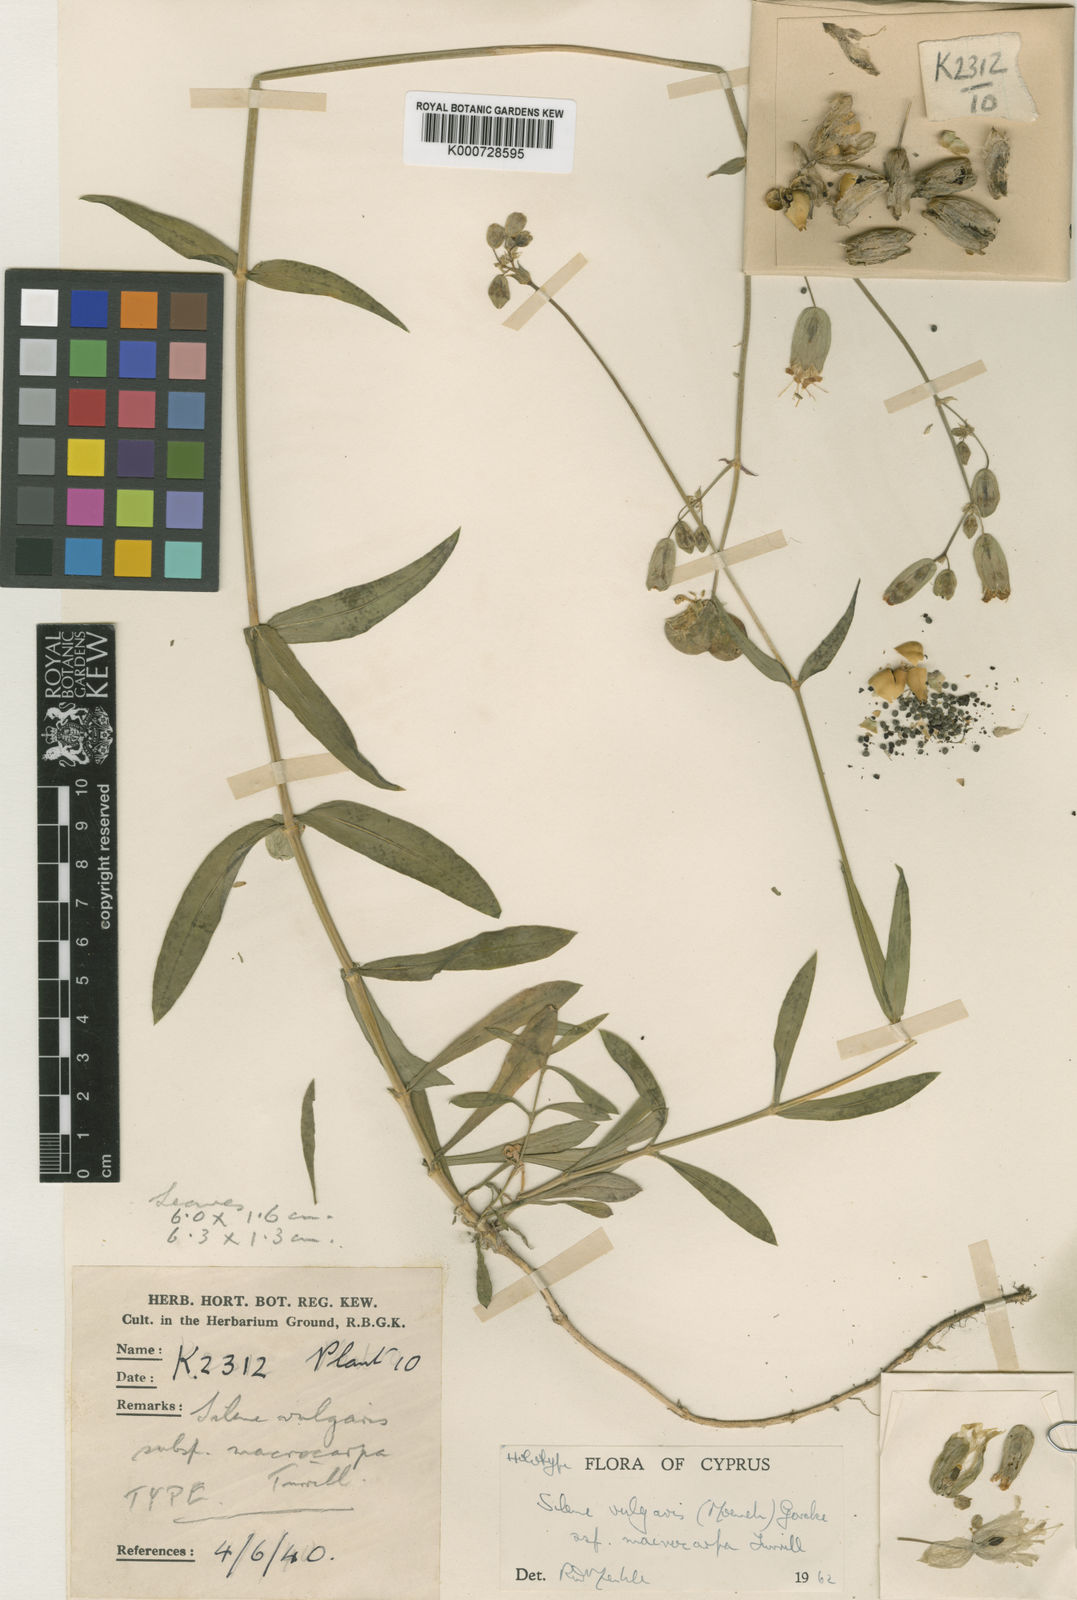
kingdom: Plantae
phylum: Tracheophyta
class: Magnoliopsida
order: Caryophyllales
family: Caryophyllaceae
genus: Silene
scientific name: Silene vulgaris
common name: Bladder campion
